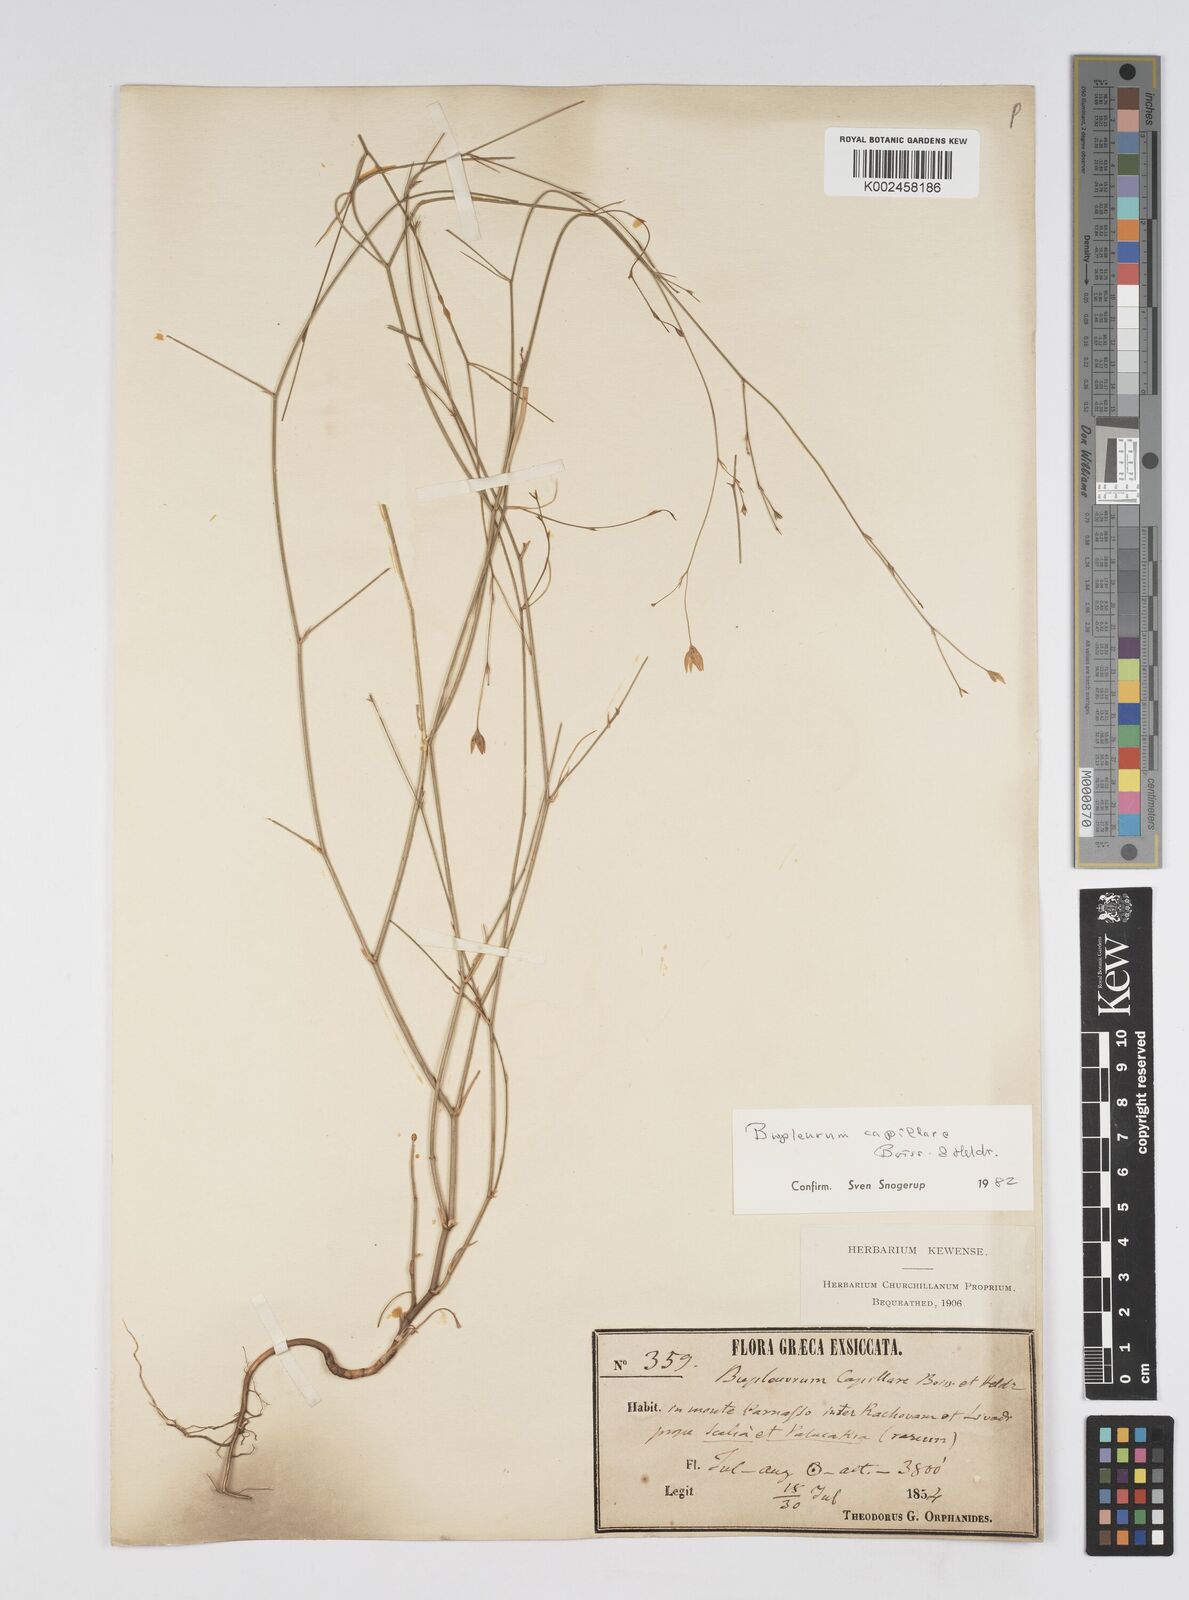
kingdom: Plantae
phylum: Tracheophyta
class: Magnoliopsida
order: Apiales
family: Apiaceae
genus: Bupleurum
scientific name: Bupleurum capillare
